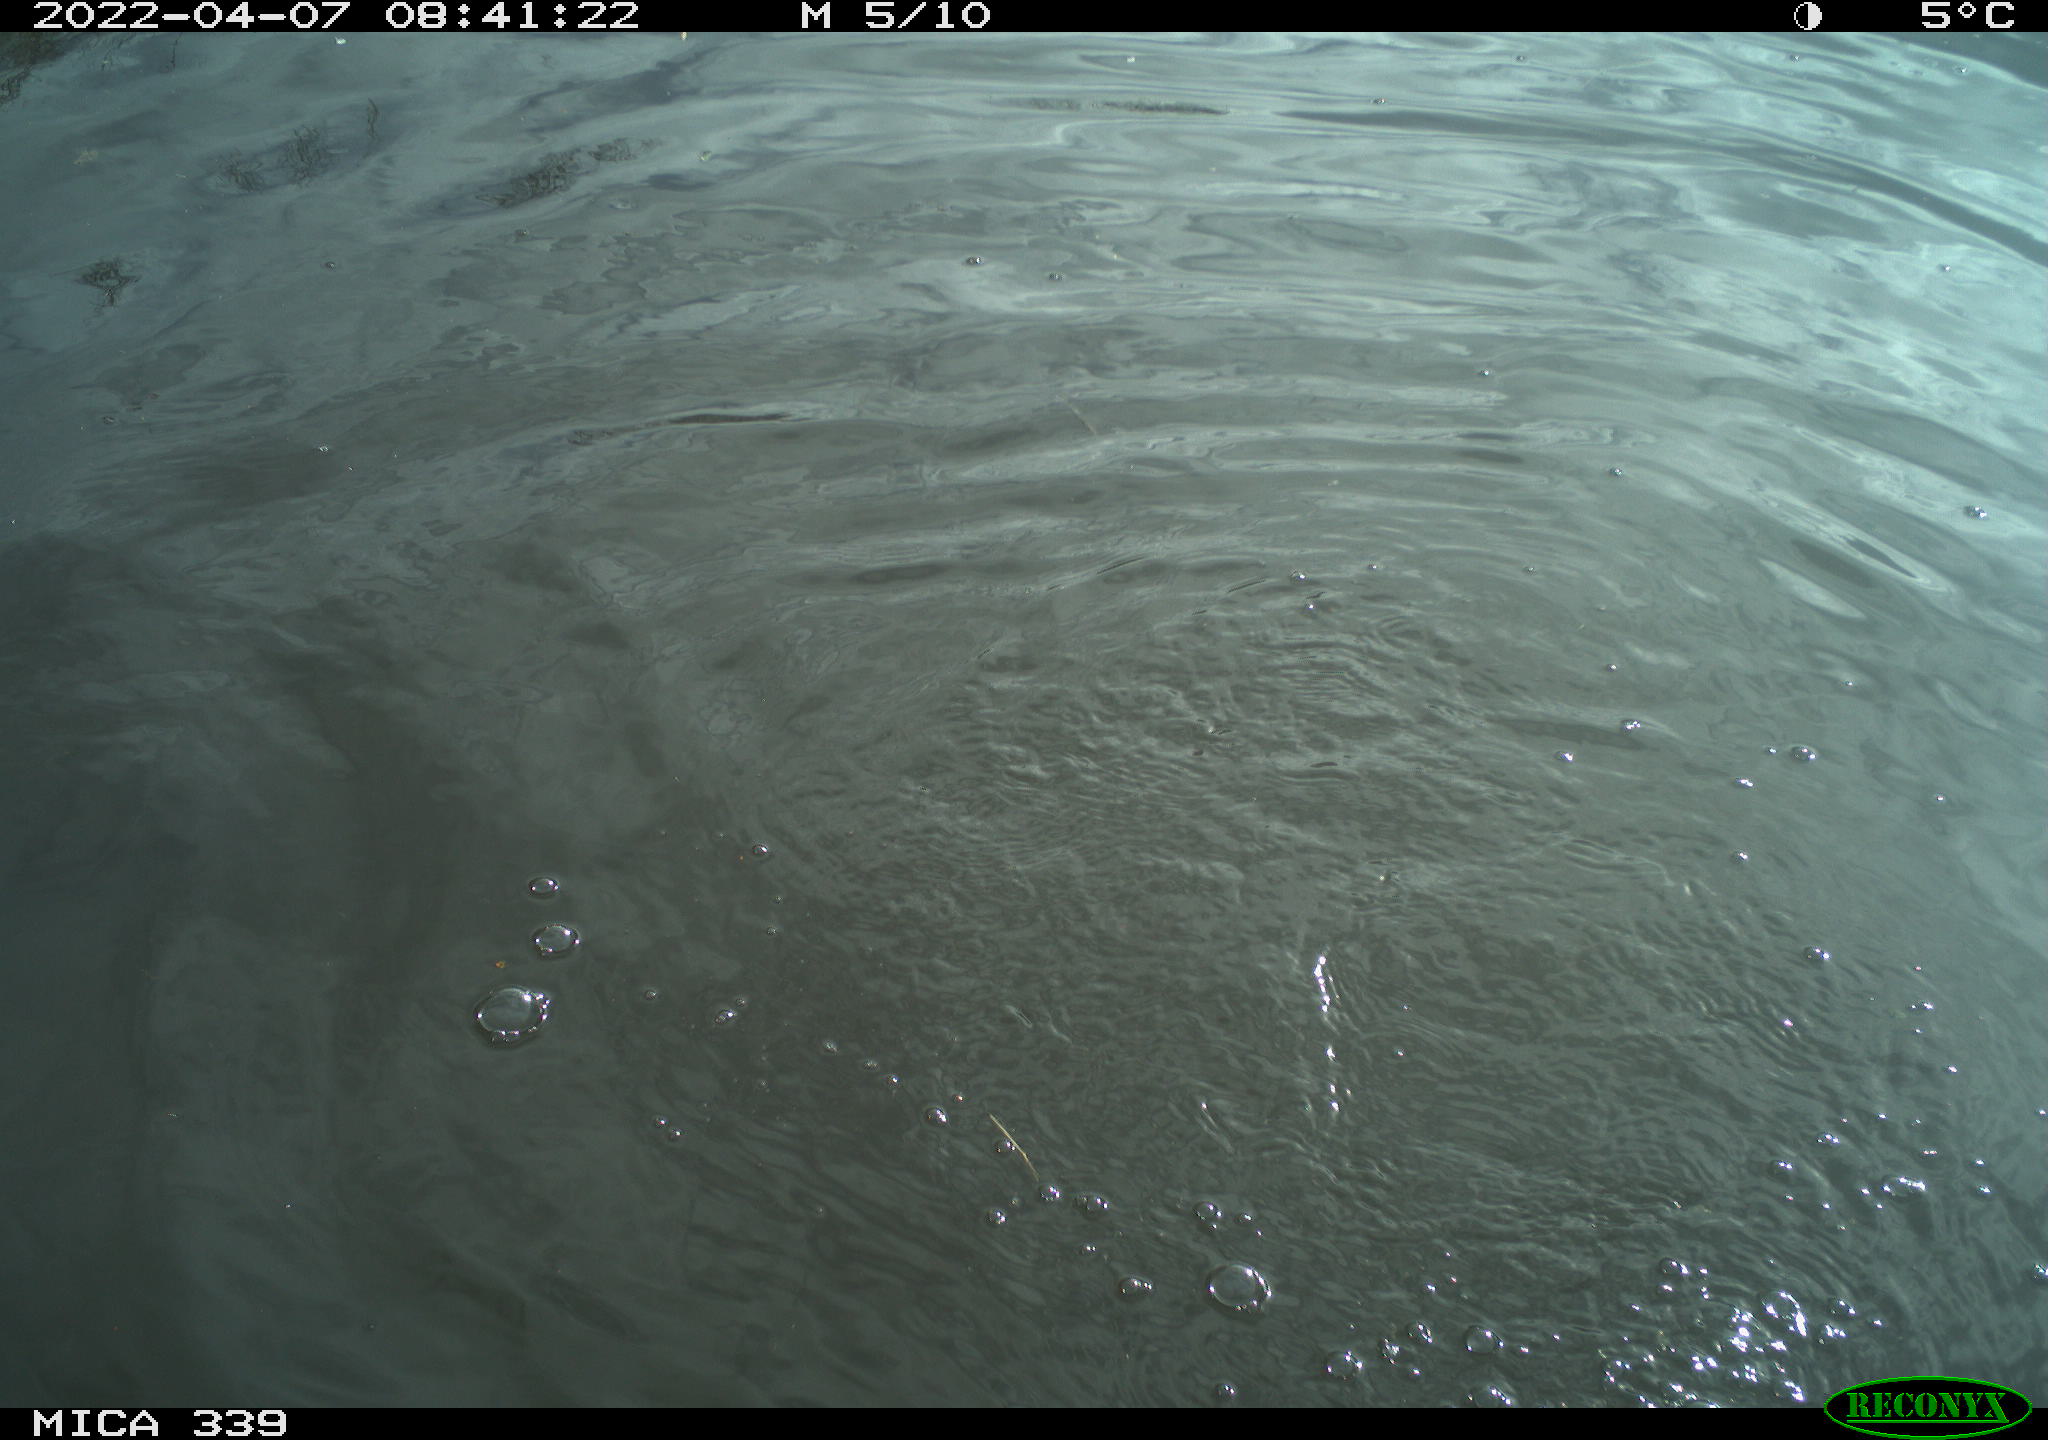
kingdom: Animalia
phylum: Chordata
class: Aves
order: Suliformes
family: Phalacrocoracidae
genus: Phalacrocorax
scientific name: Phalacrocorax carbo
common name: Great cormorant
